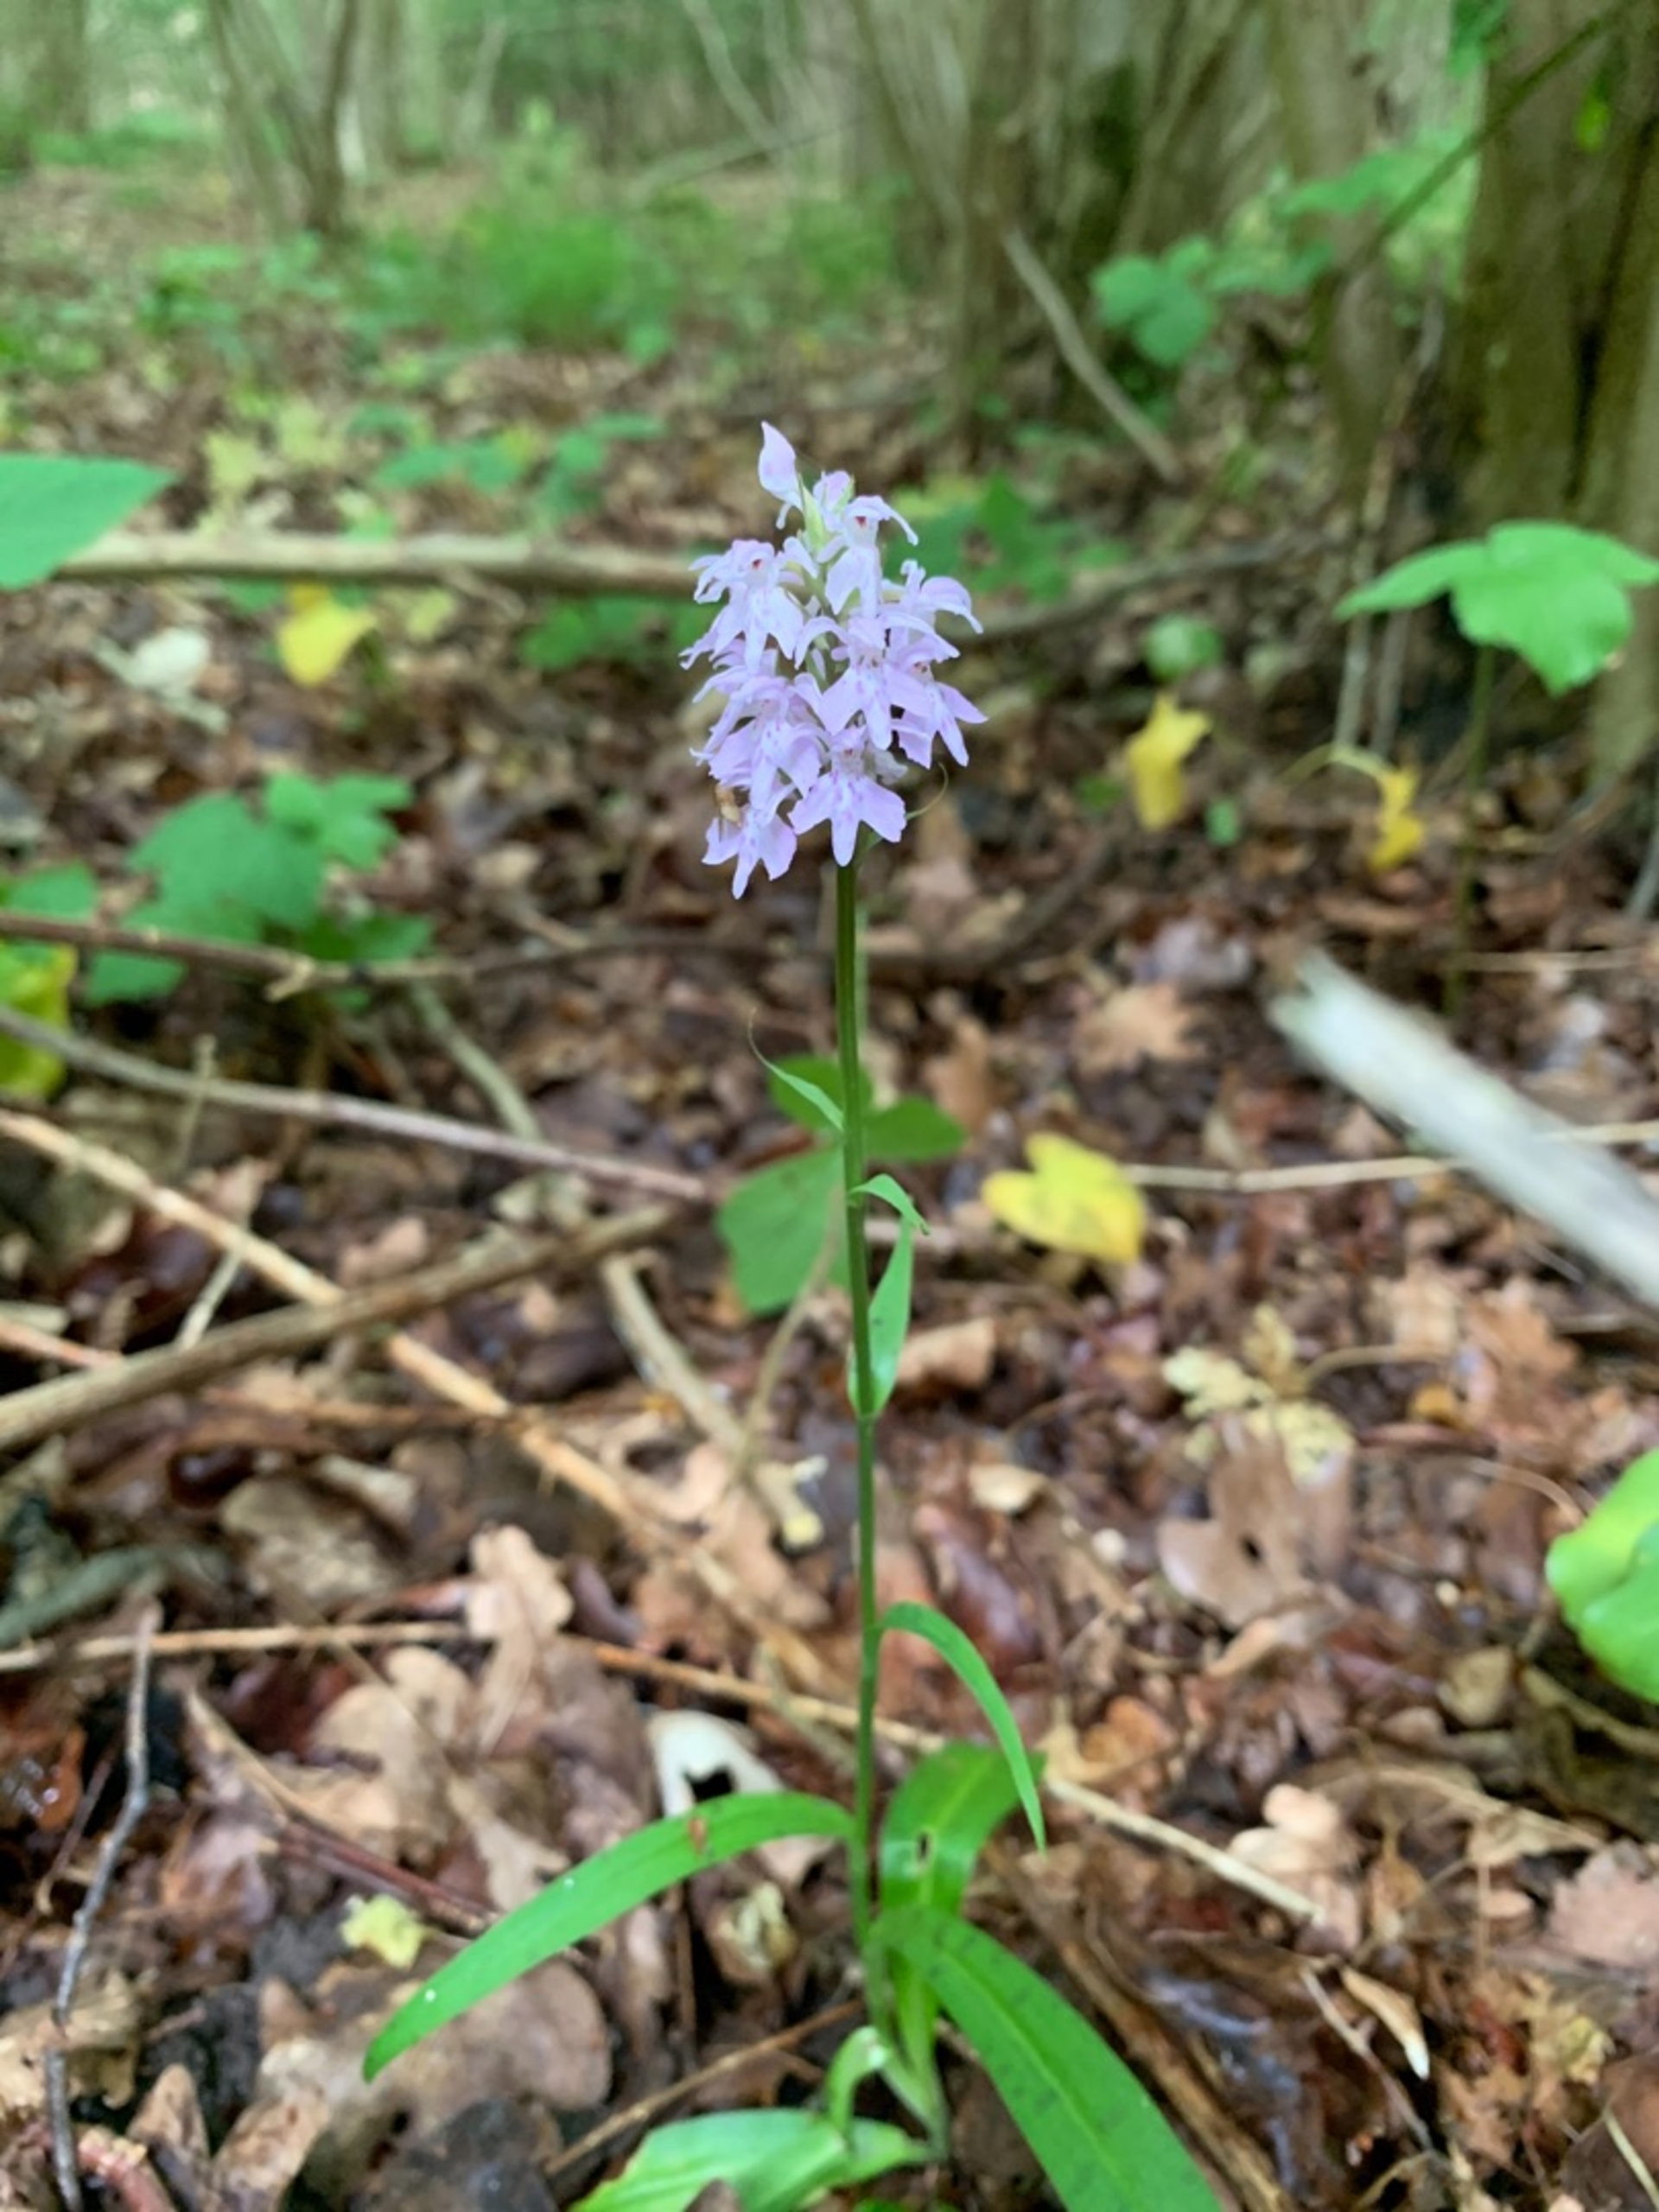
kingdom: Plantae
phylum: Tracheophyta
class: Liliopsida
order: Asparagales
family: Orchidaceae
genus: Dactylorhiza
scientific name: Dactylorhiza maculata
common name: Skov-gøgeurt
